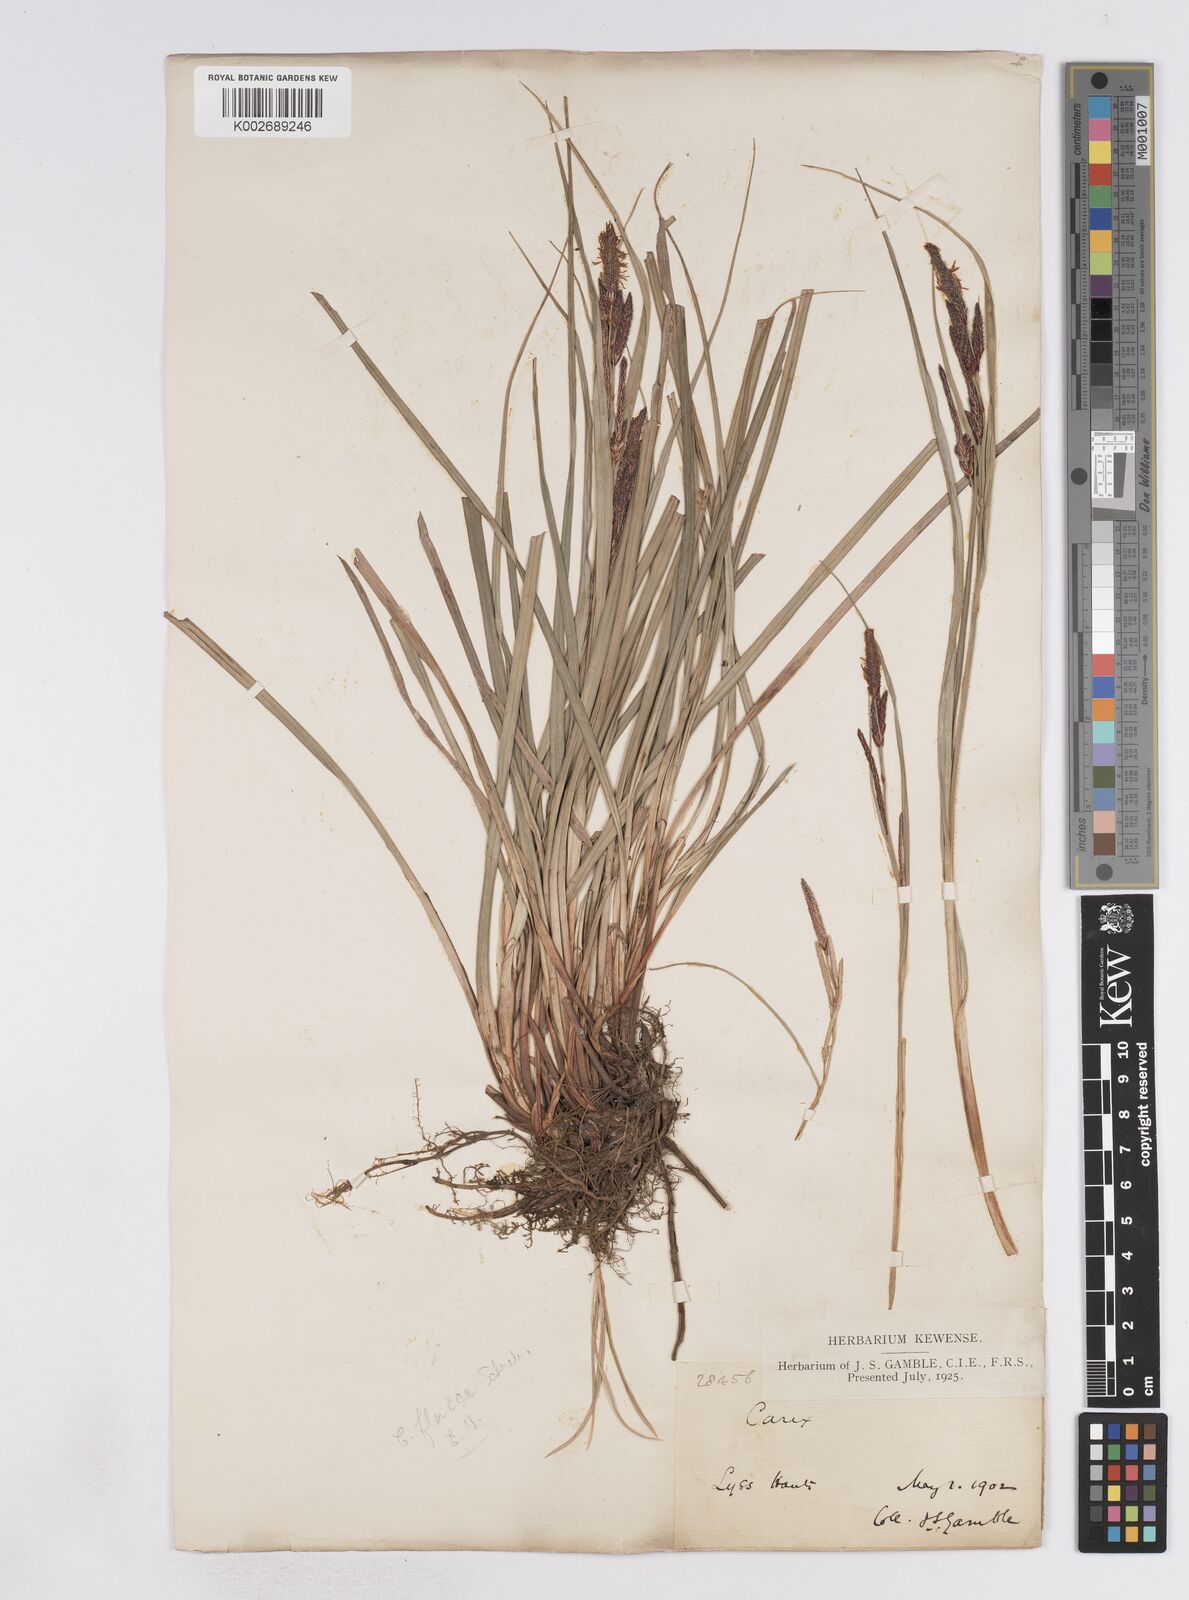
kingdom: Plantae
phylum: Tracheophyta
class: Liliopsida
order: Poales
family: Cyperaceae
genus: Carex
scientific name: Carex flacca
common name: Glaucous sedge
